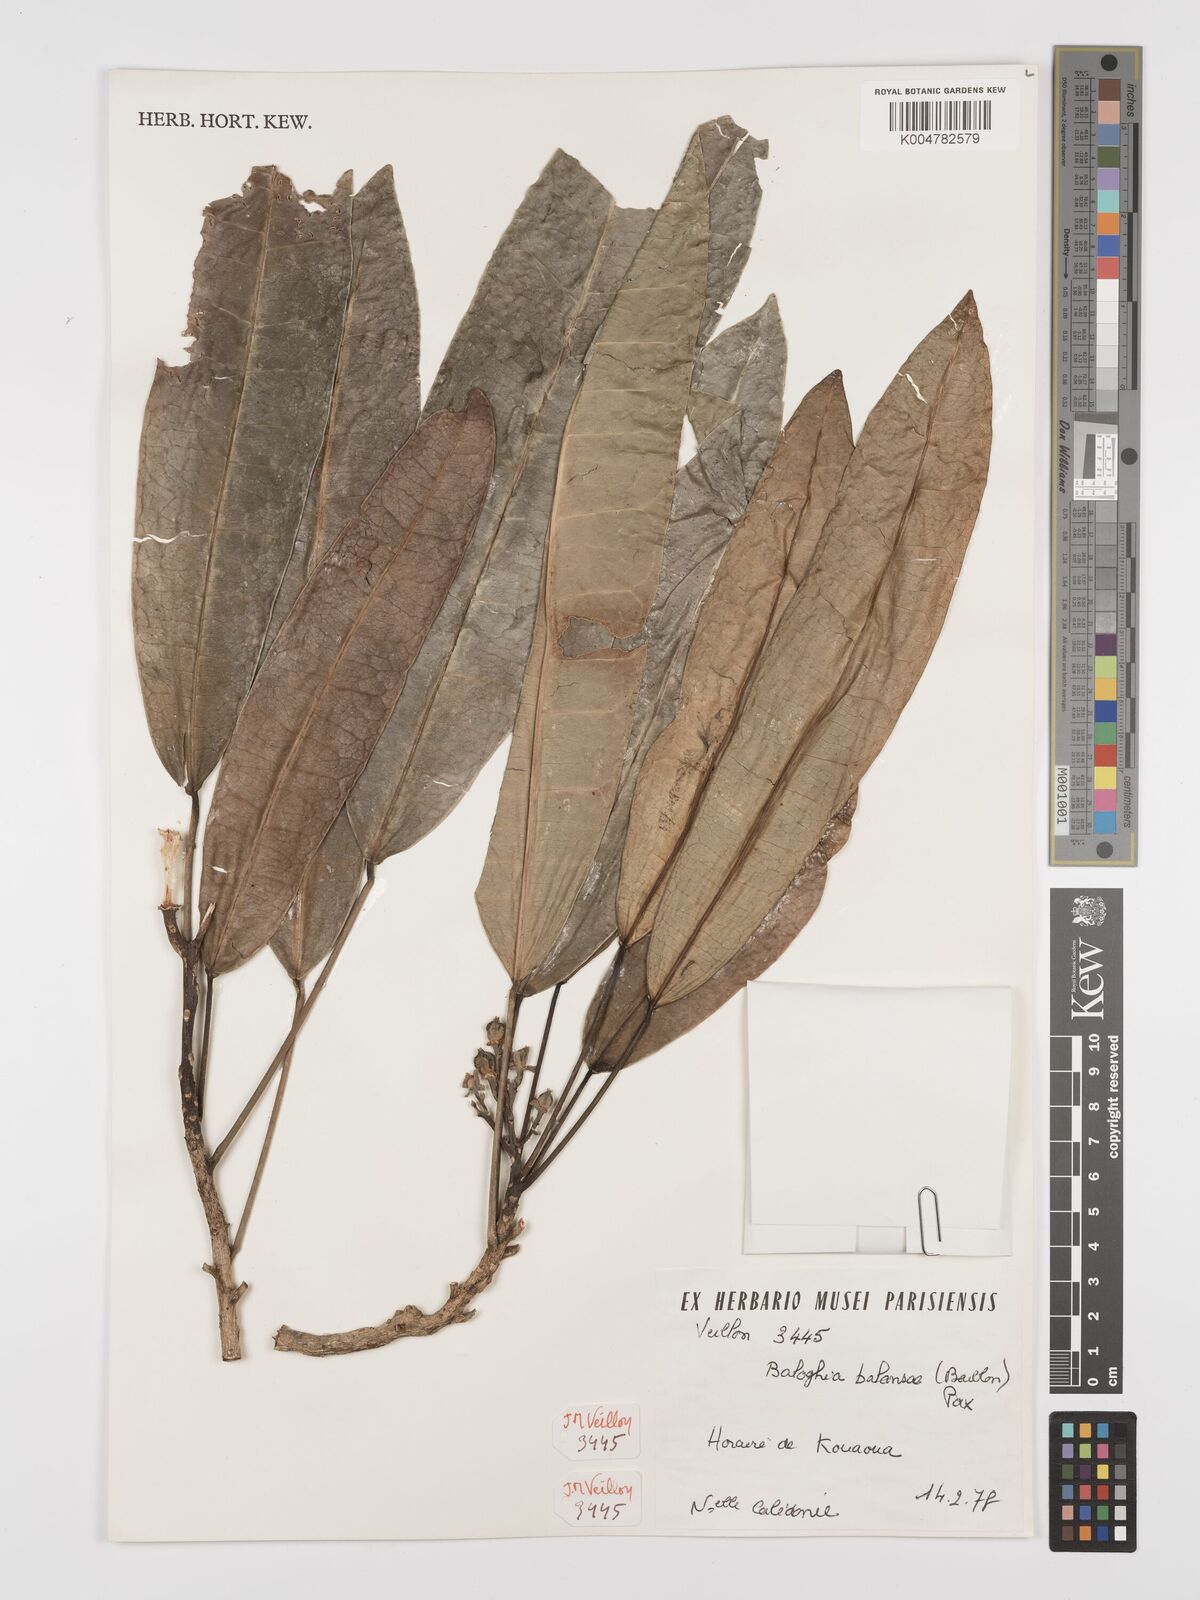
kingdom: Plantae
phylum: Tracheophyta
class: Magnoliopsida
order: Malpighiales
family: Euphorbiaceae
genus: Baloghia
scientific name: Baloghia balansae
